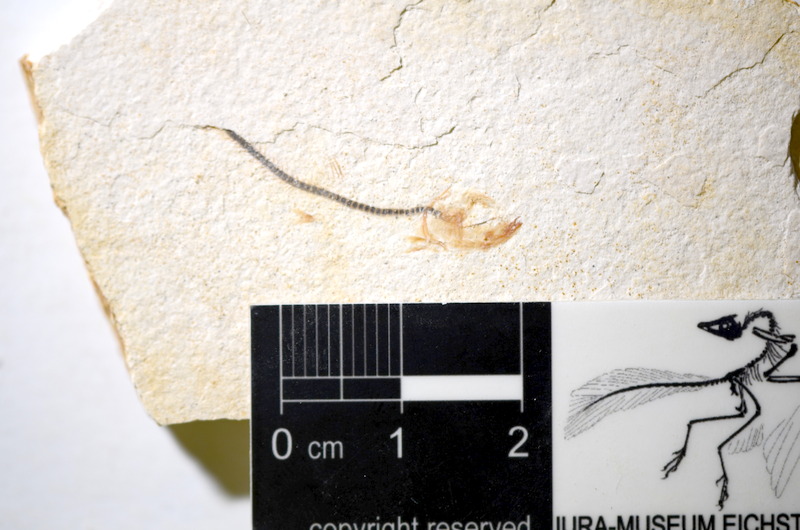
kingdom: Animalia
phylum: Chordata
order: Salmoniformes
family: Orthogonikleithridae
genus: Orthogonikleithrus
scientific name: Orthogonikleithrus hoelli
